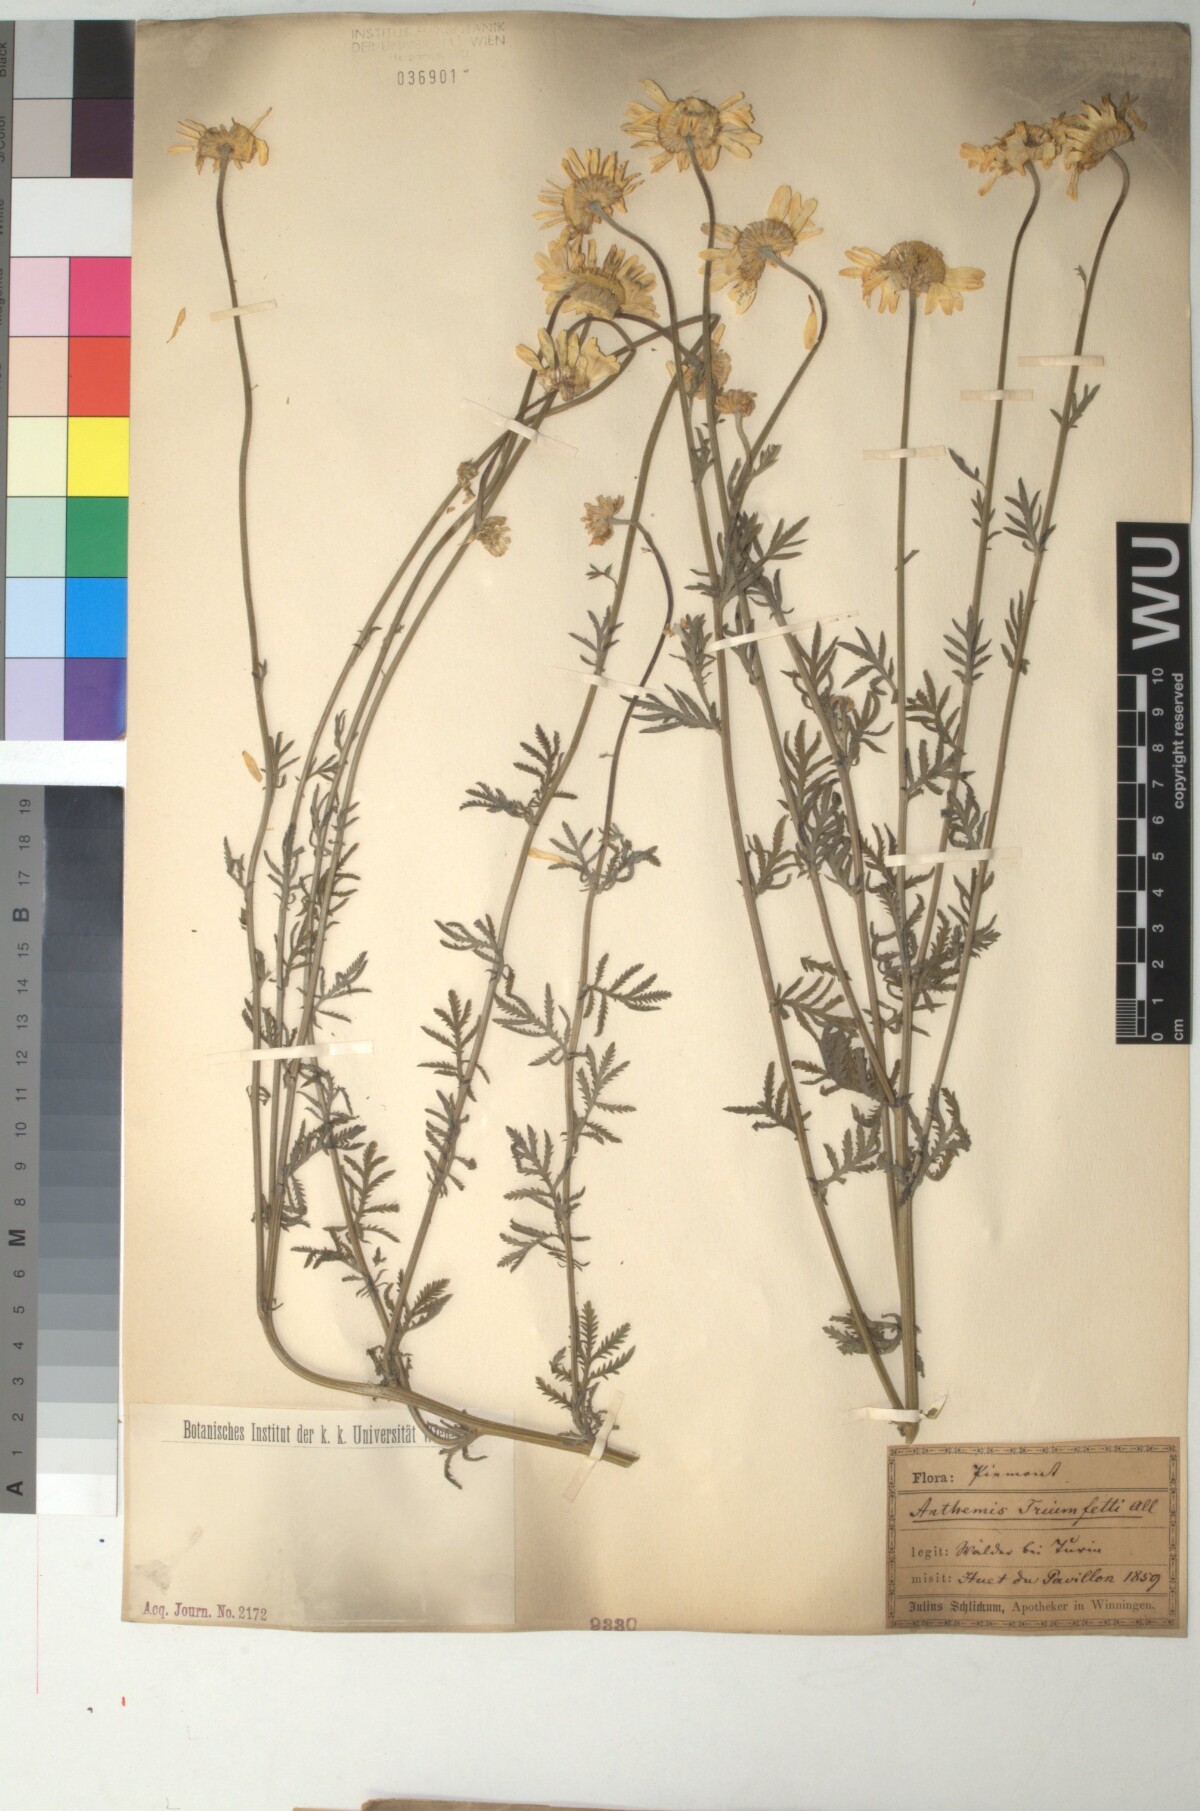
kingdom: Plantae
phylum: Tracheophyta
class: Magnoliopsida
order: Asterales
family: Asteraceae
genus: Cota
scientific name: Cota triumfetti
